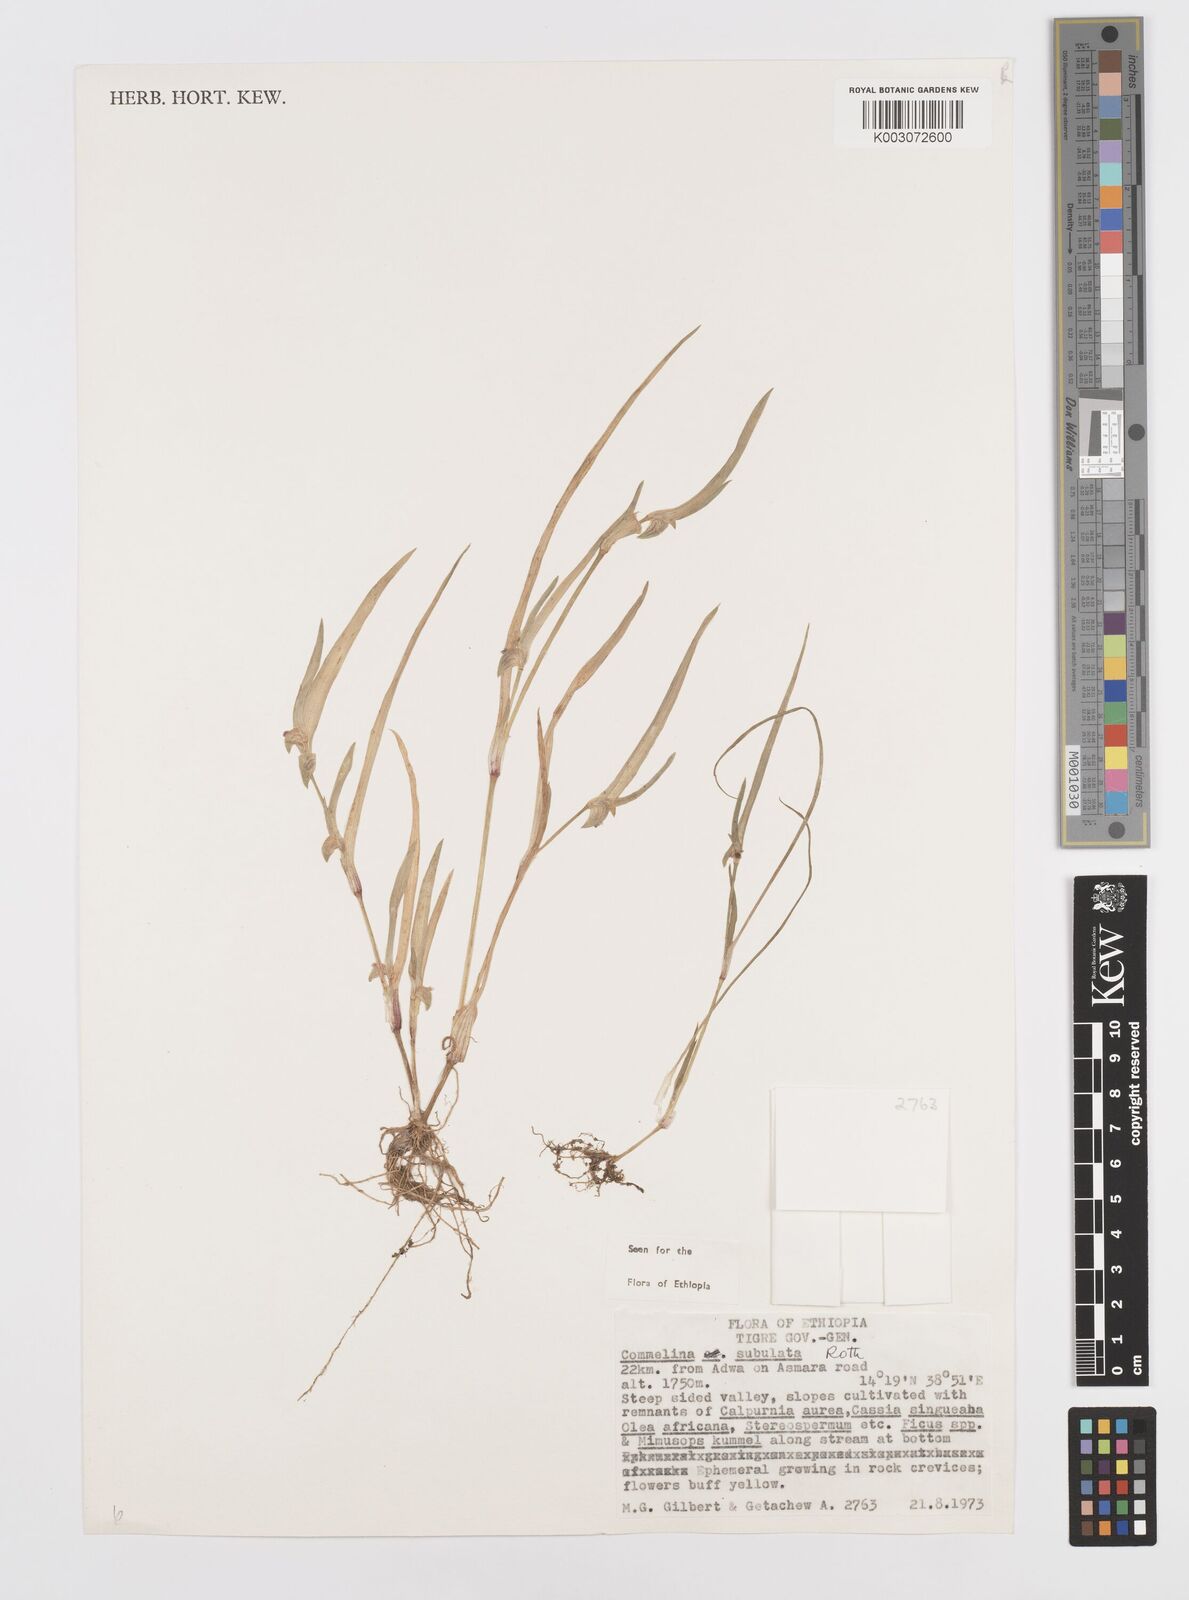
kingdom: Plantae
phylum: Tracheophyta
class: Liliopsida
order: Commelinales
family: Commelinaceae
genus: Commelina
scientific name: Commelina subulata
